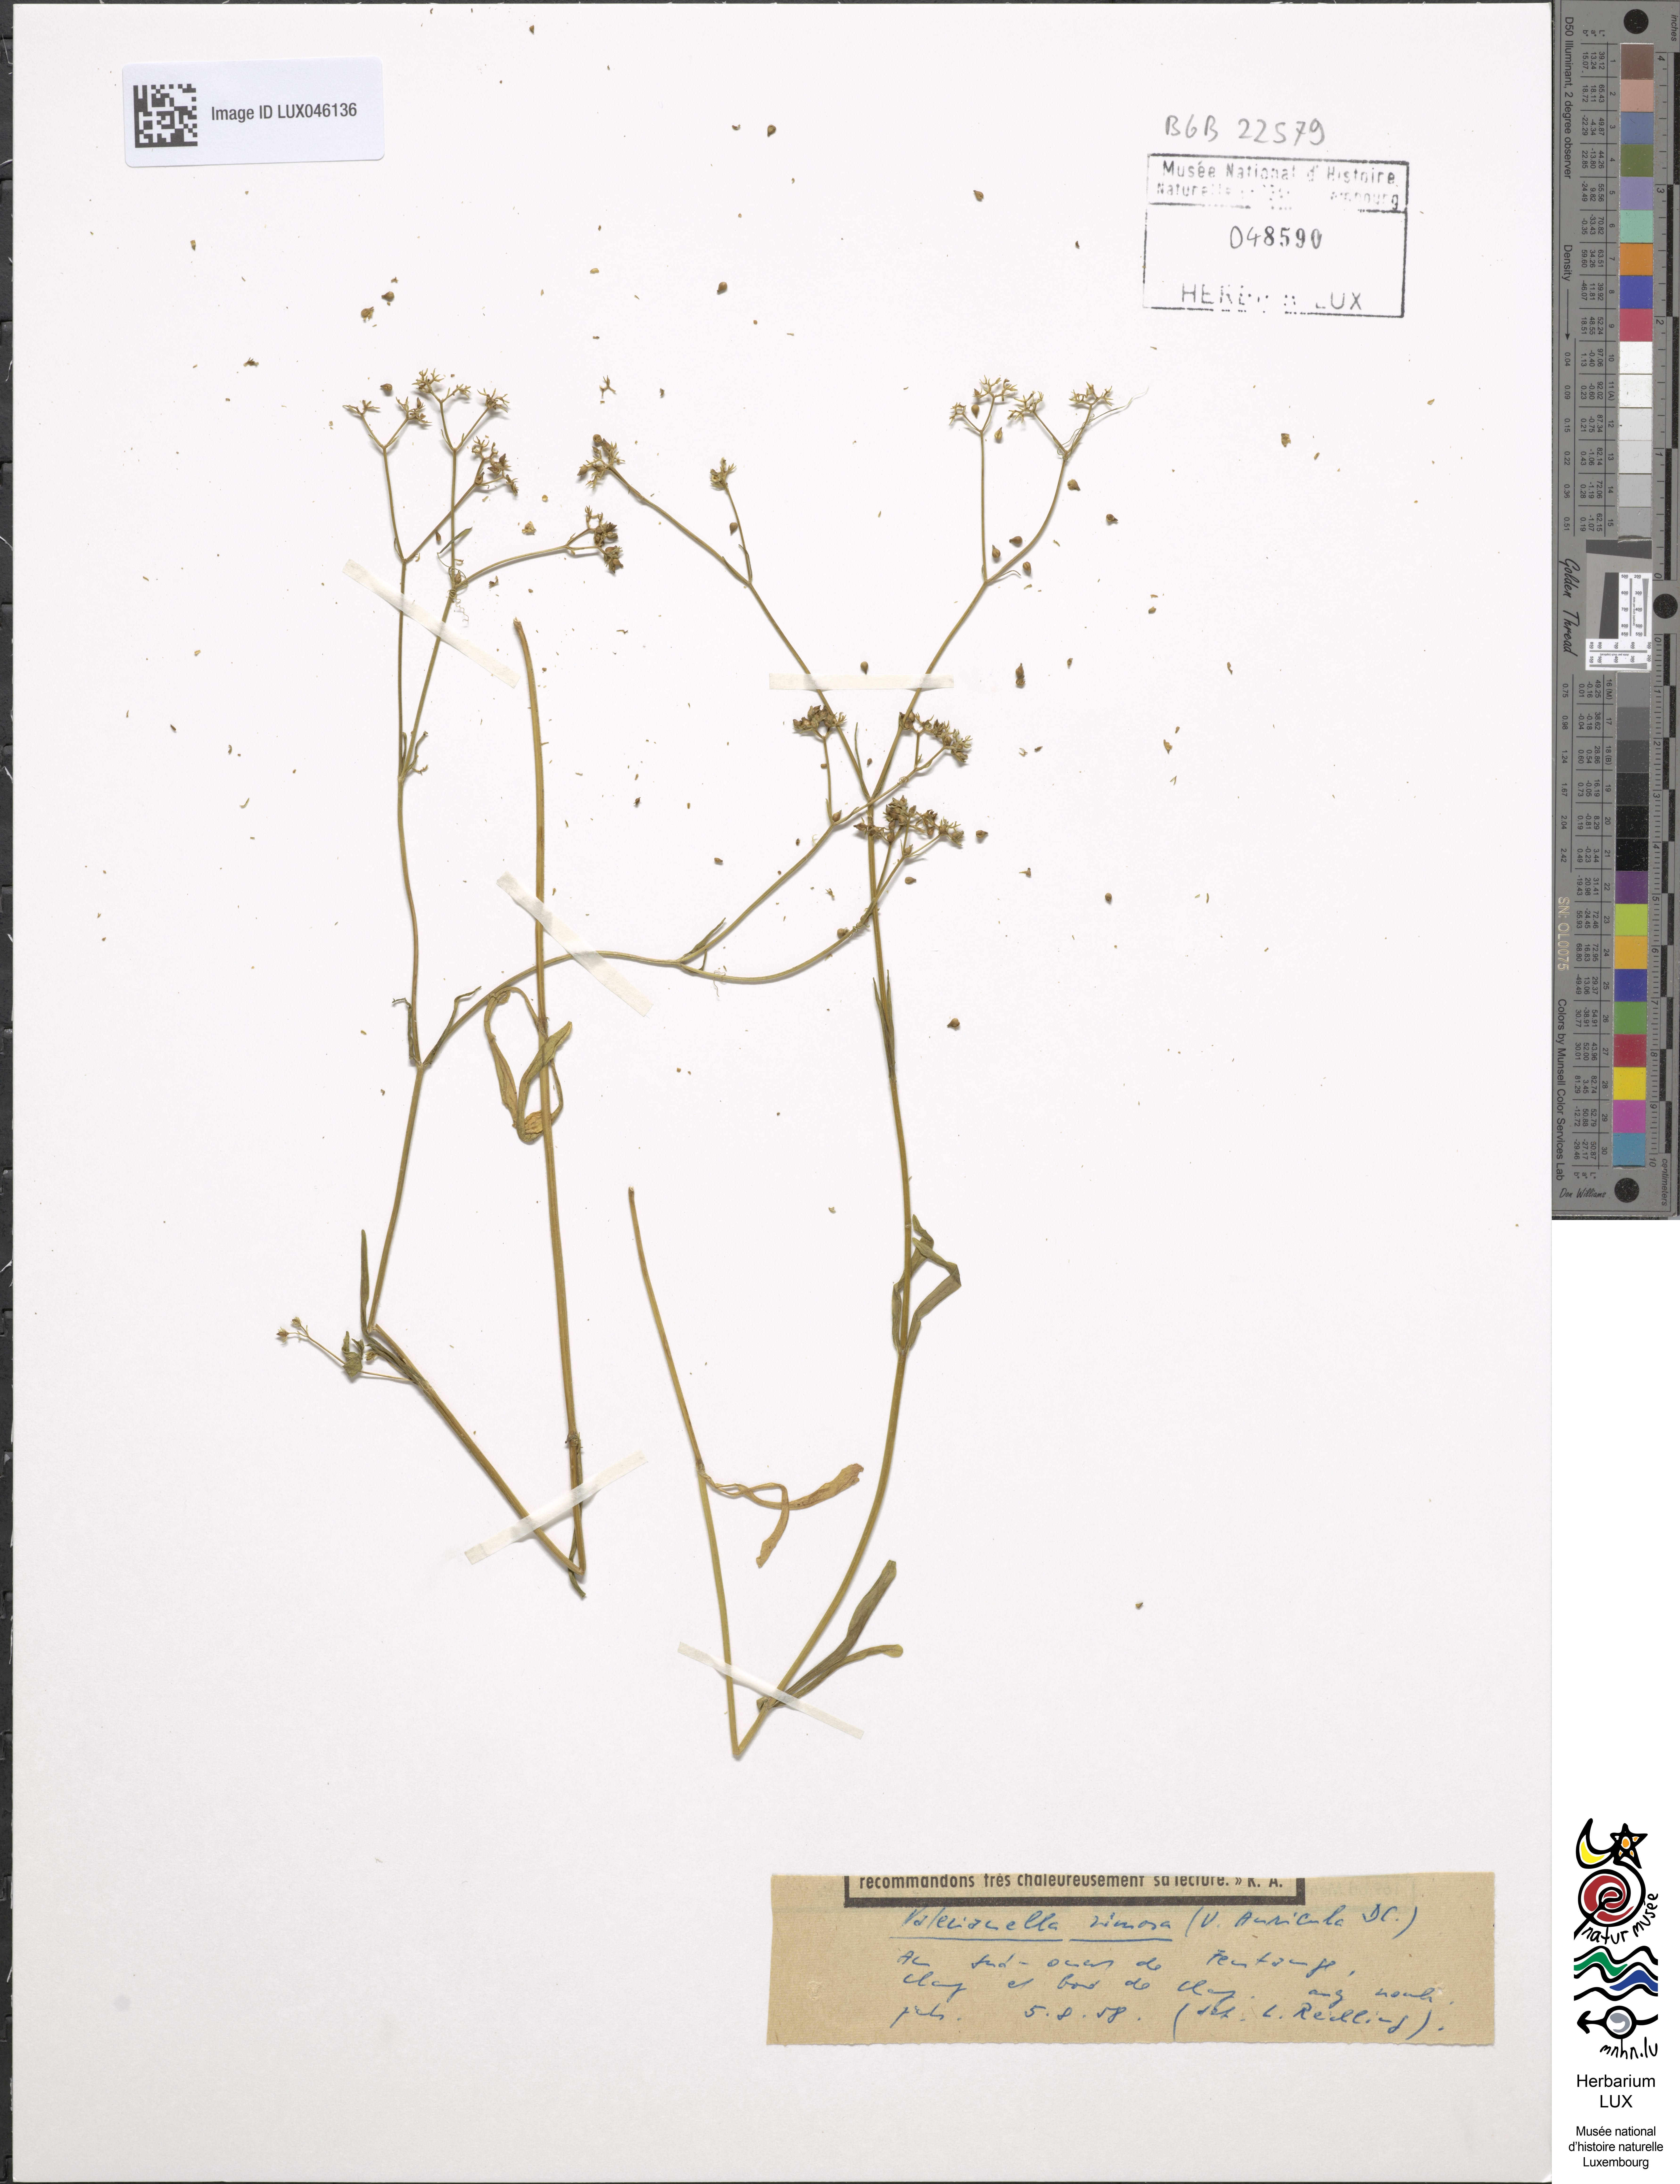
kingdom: Plantae
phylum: Tracheophyta
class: Magnoliopsida
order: Dipsacales
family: Caprifoliaceae
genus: Valerianella
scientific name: Valerianella rimosa
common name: Broad-fruited cornsalad
